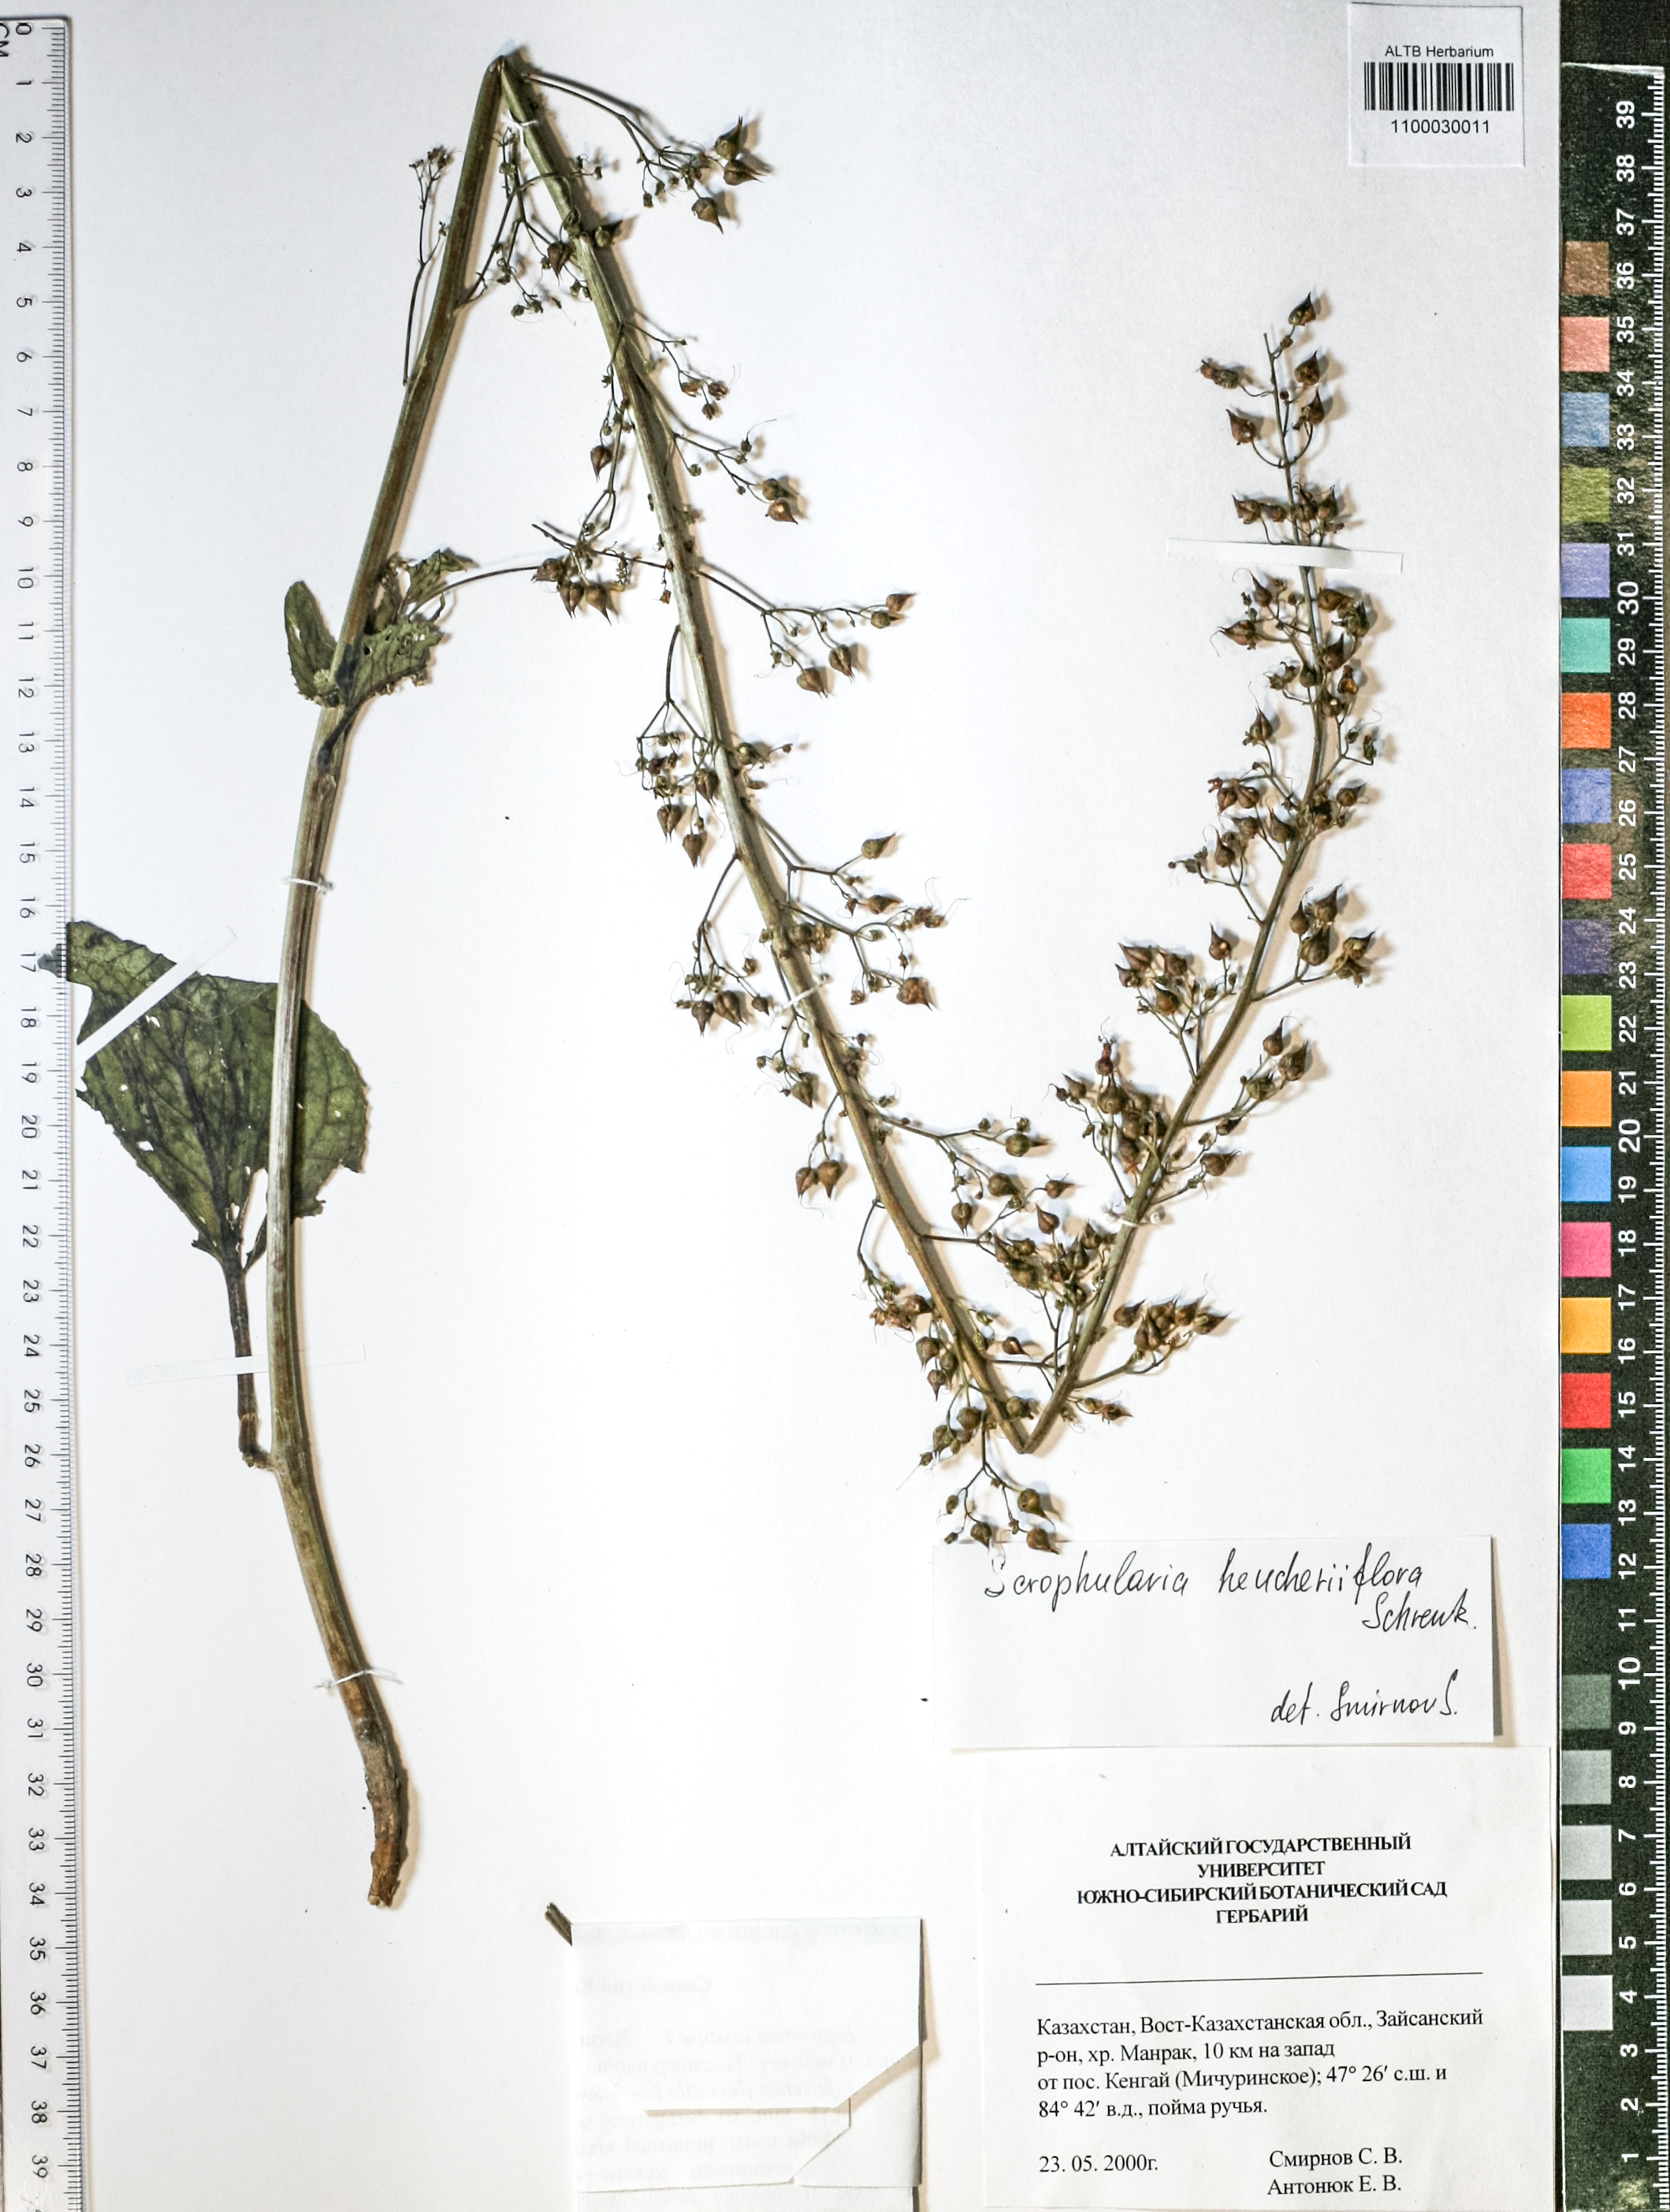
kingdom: Plantae
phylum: Tracheophyta
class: Magnoliopsida
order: Lamiales
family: Scrophulariaceae
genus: Scrophularia
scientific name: Scrophularia heucheriflora
